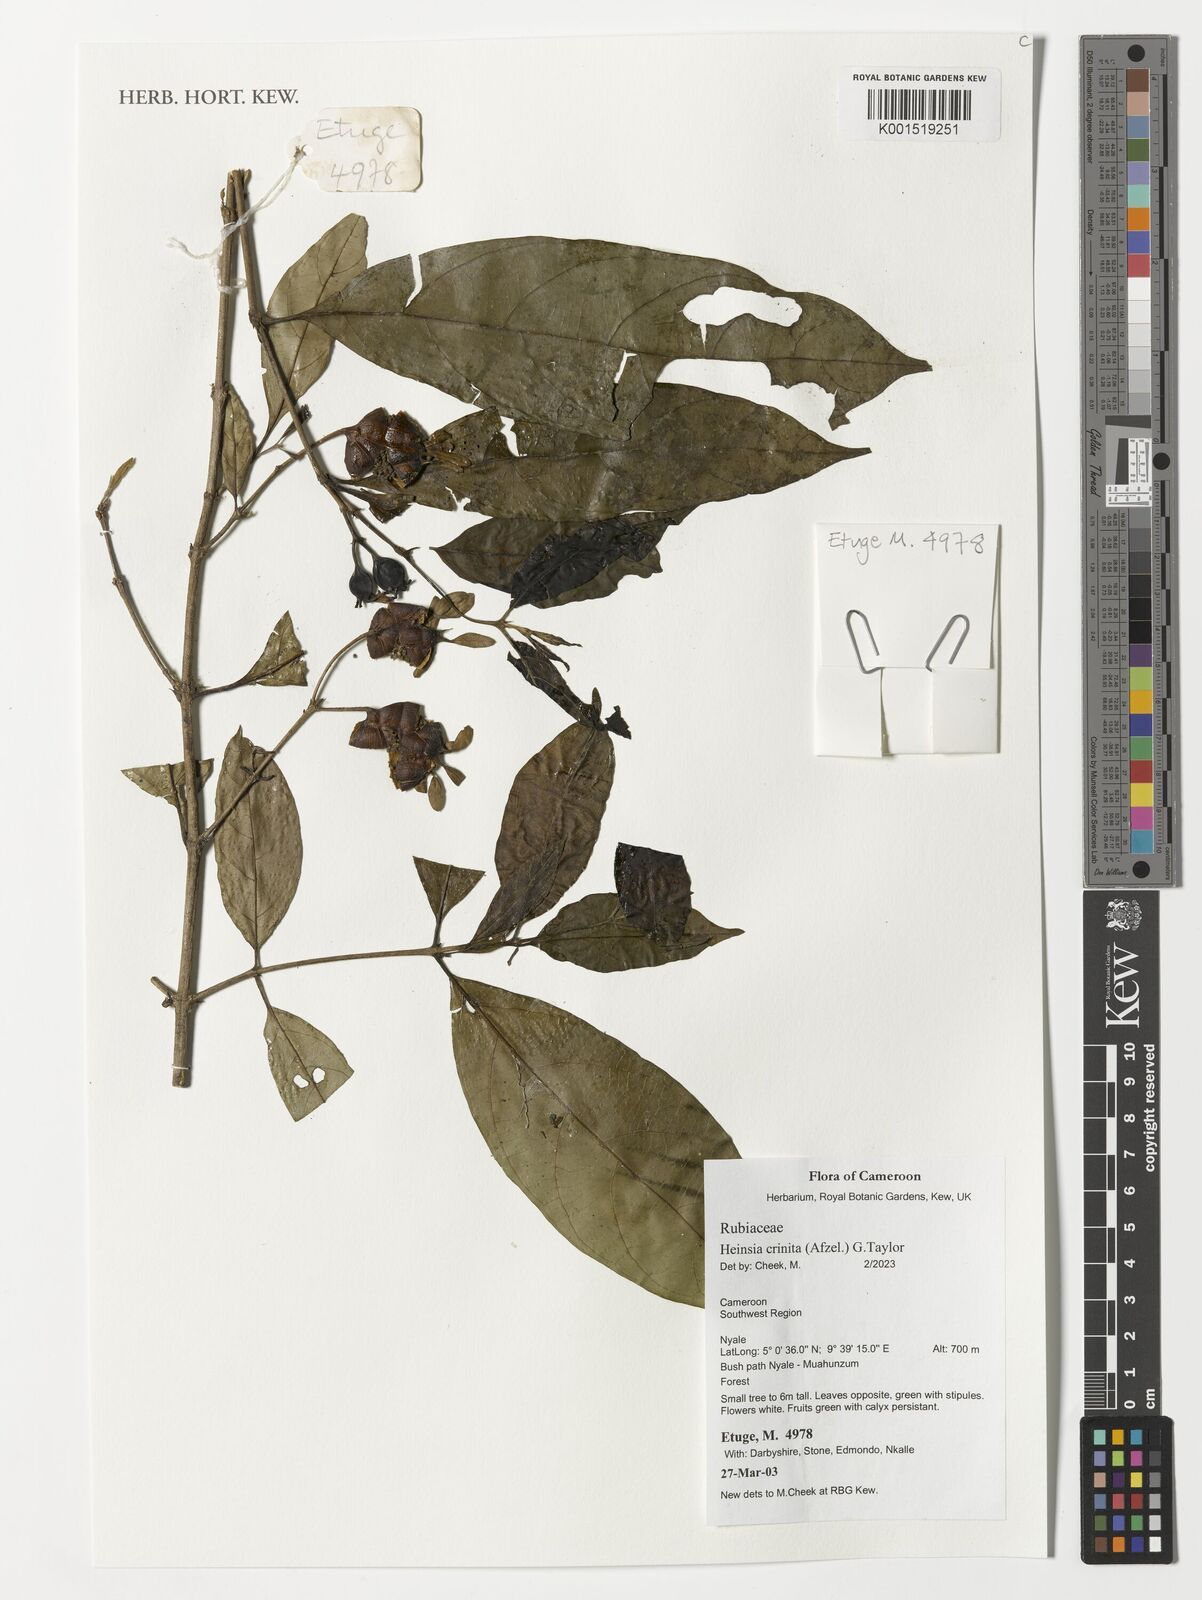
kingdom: Plantae
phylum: Tracheophyta
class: Magnoliopsida
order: Gentianales
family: Rubiaceae
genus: Heinsia
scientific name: Heinsia crinita
